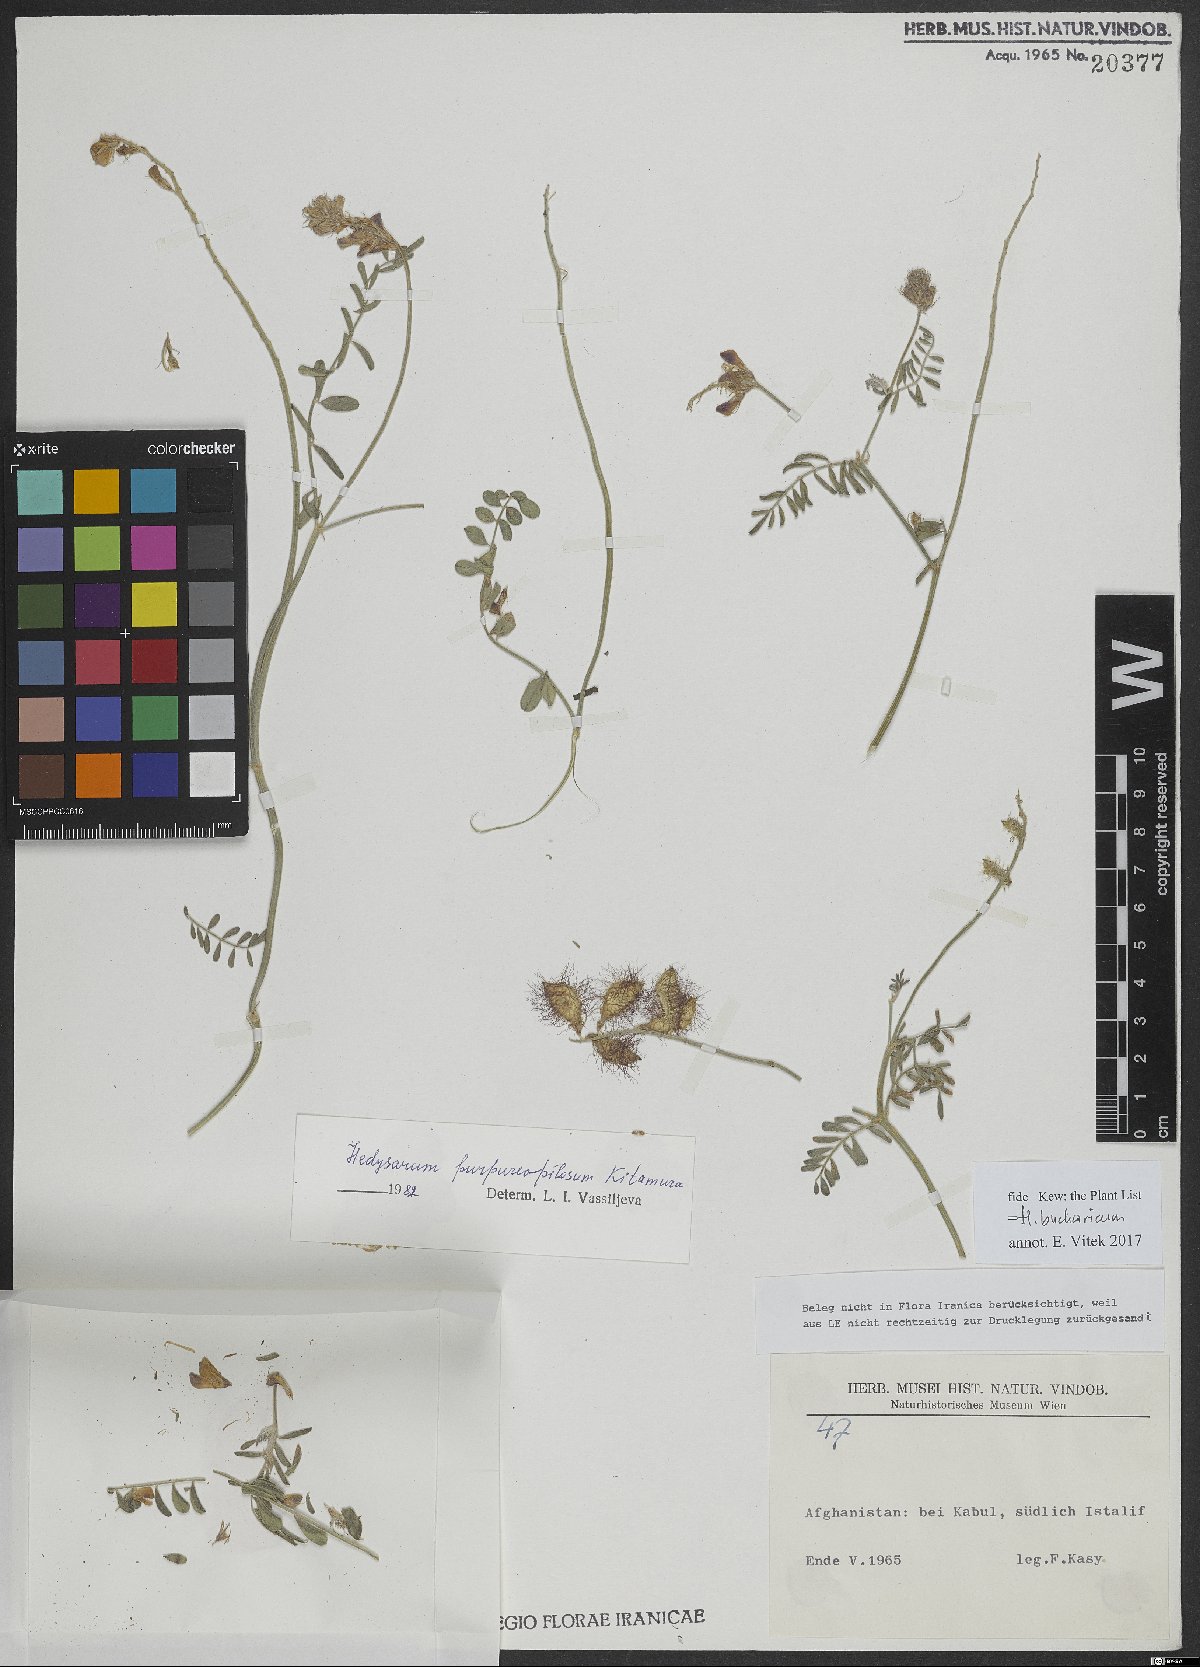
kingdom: Plantae
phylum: Tracheophyta
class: Magnoliopsida
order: Fabales
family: Fabaceae
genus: Hedysarum
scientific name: Hedysarum bucharicum
